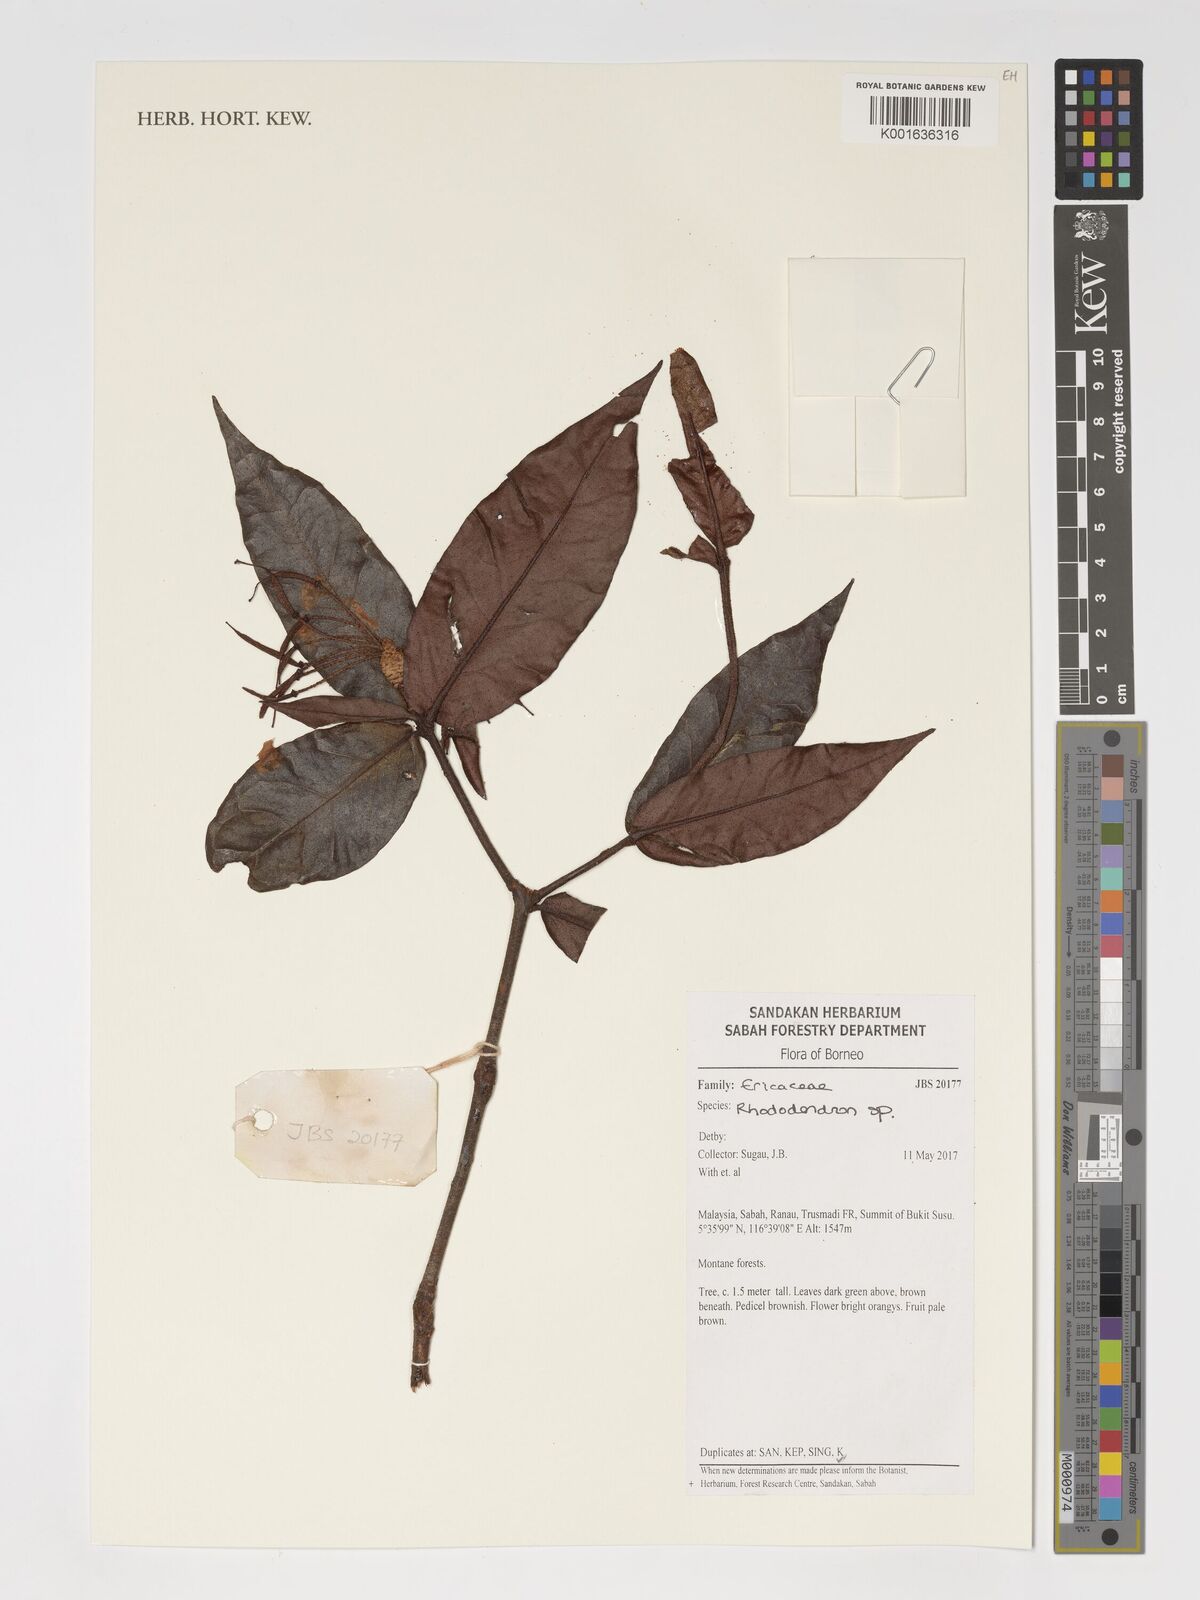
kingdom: Plantae
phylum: Tracheophyta
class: Magnoliopsida
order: Ericales
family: Ericaceae
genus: Rhododendron
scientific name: Rhododendron
